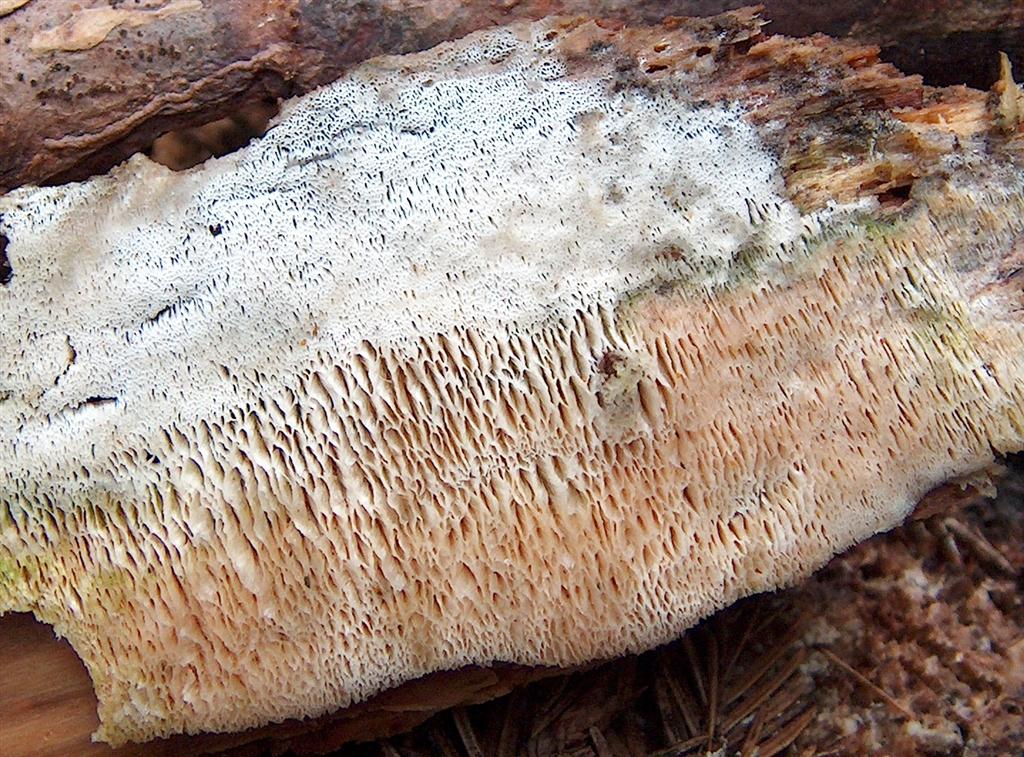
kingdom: Fungi
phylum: Basidiomycota
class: Agaricomycetes
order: Polyporales
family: Fomitopsidaceae
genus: Antrodia
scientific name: Antrodia heteromorpha
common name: grov sejporesvamp
